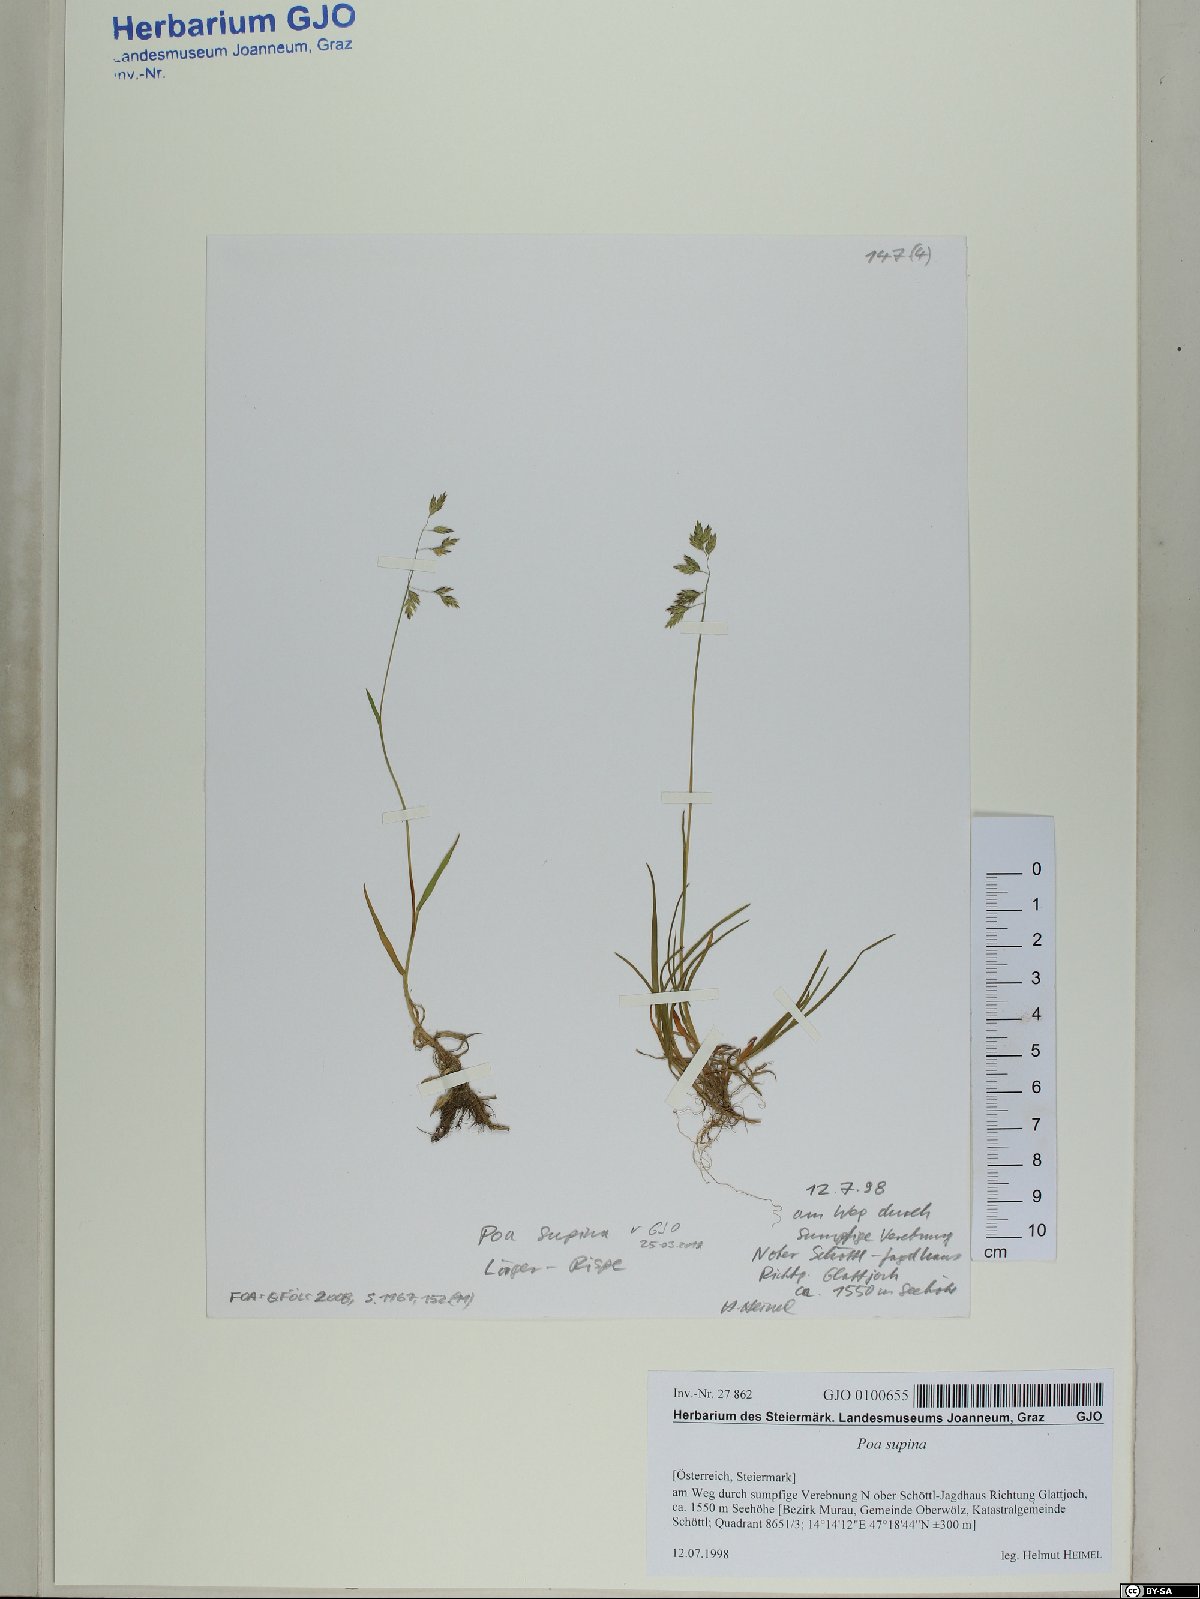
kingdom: Plantae
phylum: Tracheophyta
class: Liliopsida
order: Poales
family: Poaceae
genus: Poa
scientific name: Poa supina
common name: Supina bluegrass
